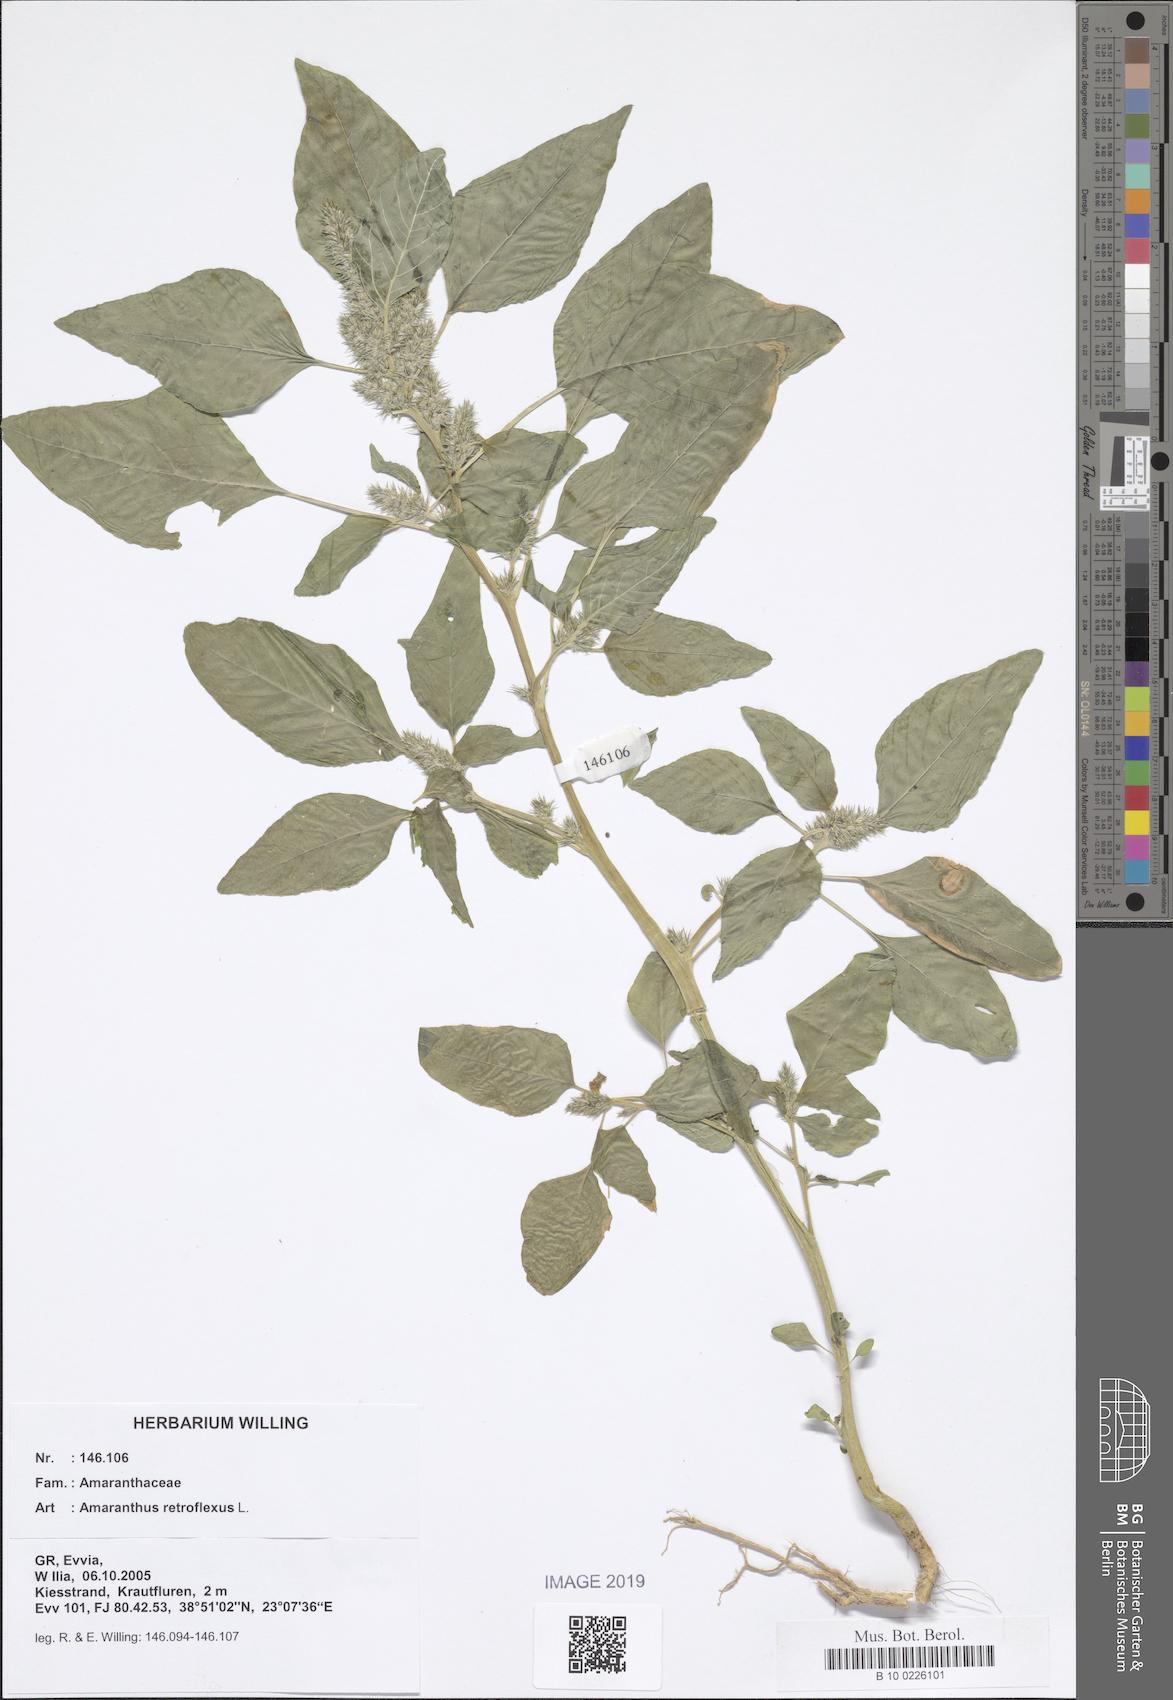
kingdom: Plantae
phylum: Tracheophyta
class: Magnoliopsida
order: Caryophyllales
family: Amaranthaceae
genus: Amaranthus
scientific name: Amaranthus retroflexus
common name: Redroot amaranth
